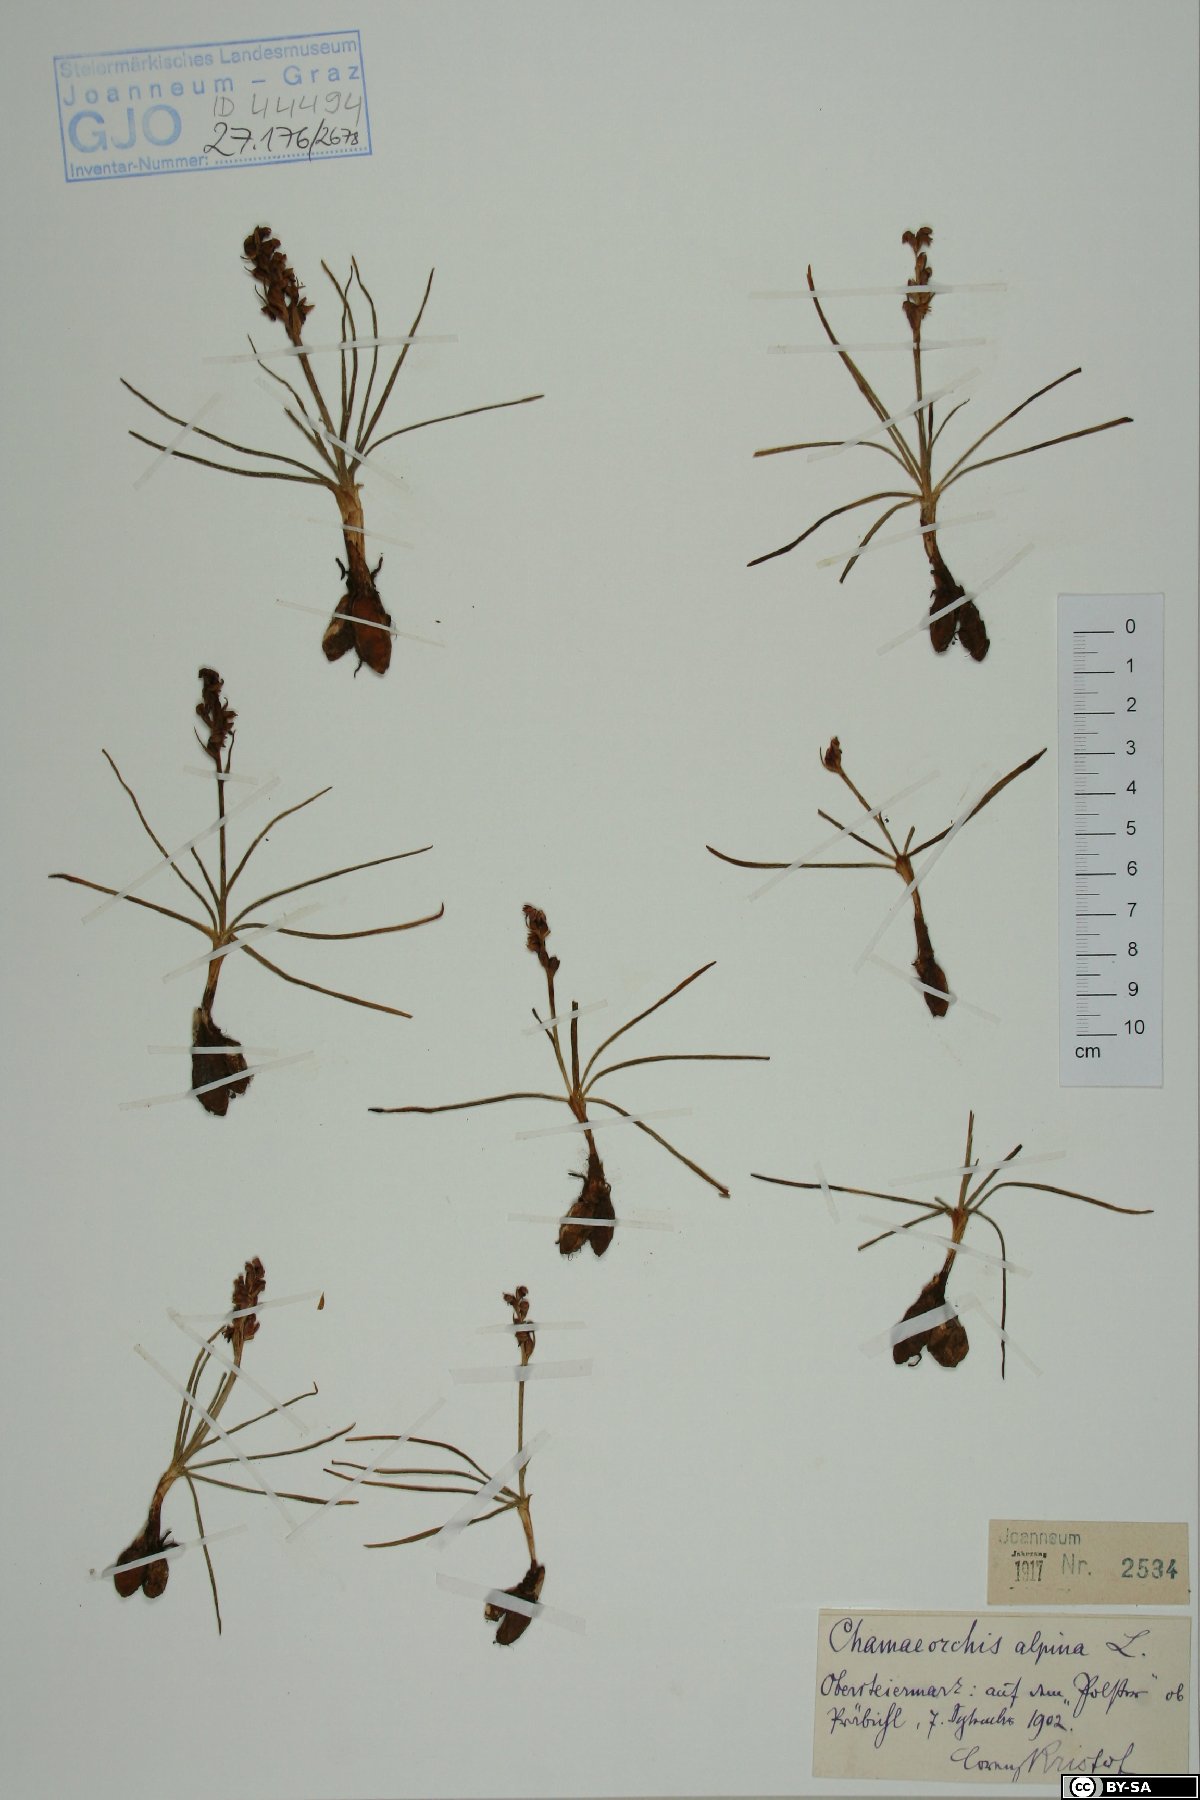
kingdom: Plantae
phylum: Tracheophyta
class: Liliopsida
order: Asparagales
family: Orchidaceae
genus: Chamorchis
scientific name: Chamorchis alpina
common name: Alpine chamorchis
